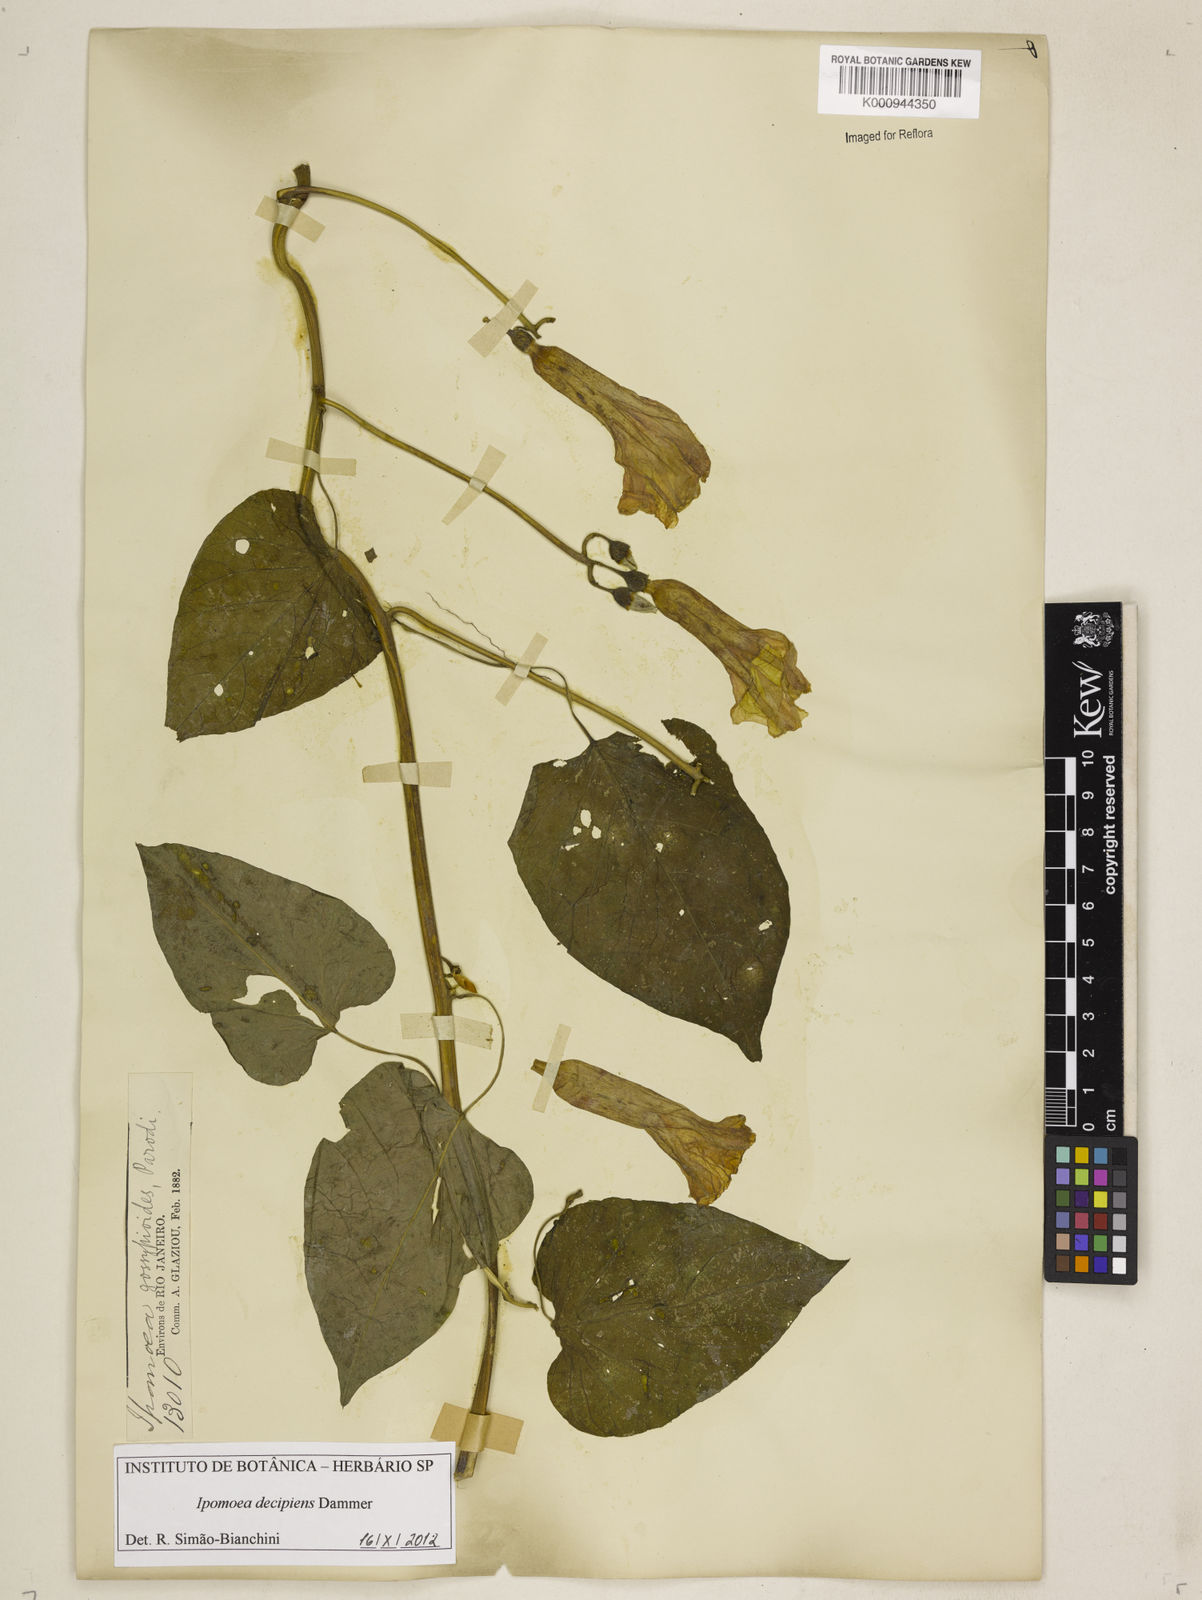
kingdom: Plantae
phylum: Tracheophyta
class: Magnoliopsida
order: Solanales
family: Convolvulaceae
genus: Ipomoea
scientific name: Ipomoea decipiens
